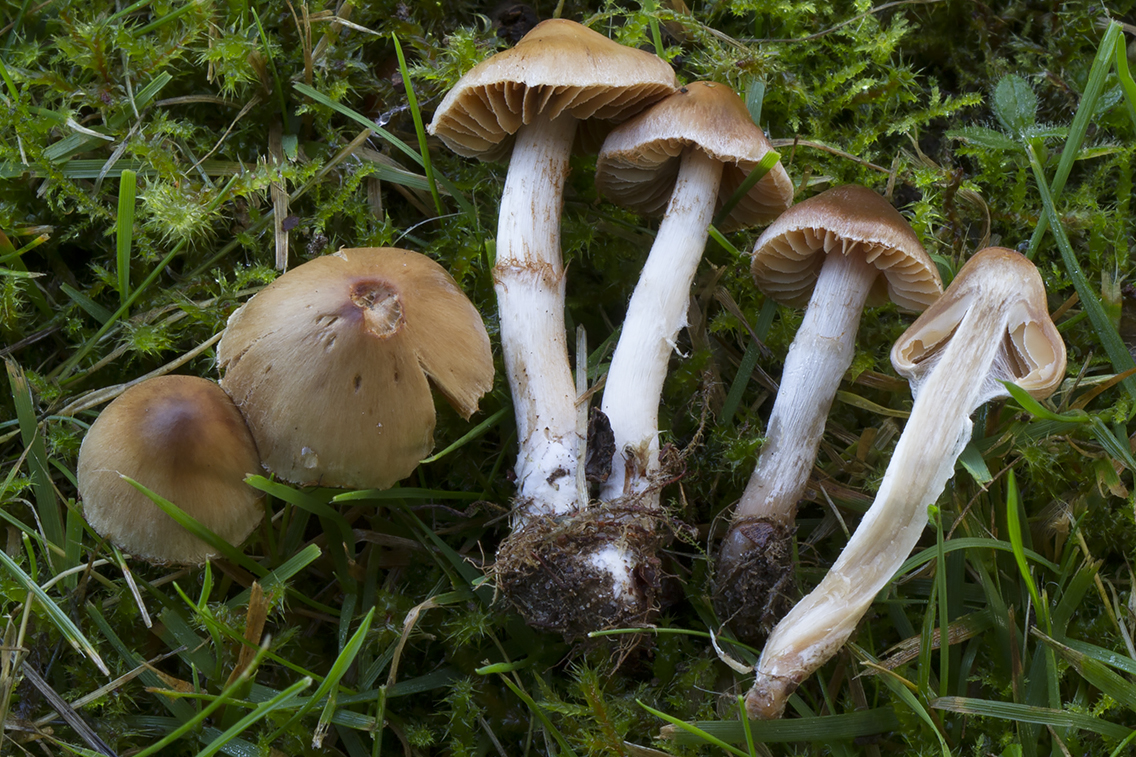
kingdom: Fungi
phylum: Basidiomycota
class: Agaricomycetes
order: Agaricales
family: Cortinariaceae
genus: Cortinarius
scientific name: Cortinarius incisior
